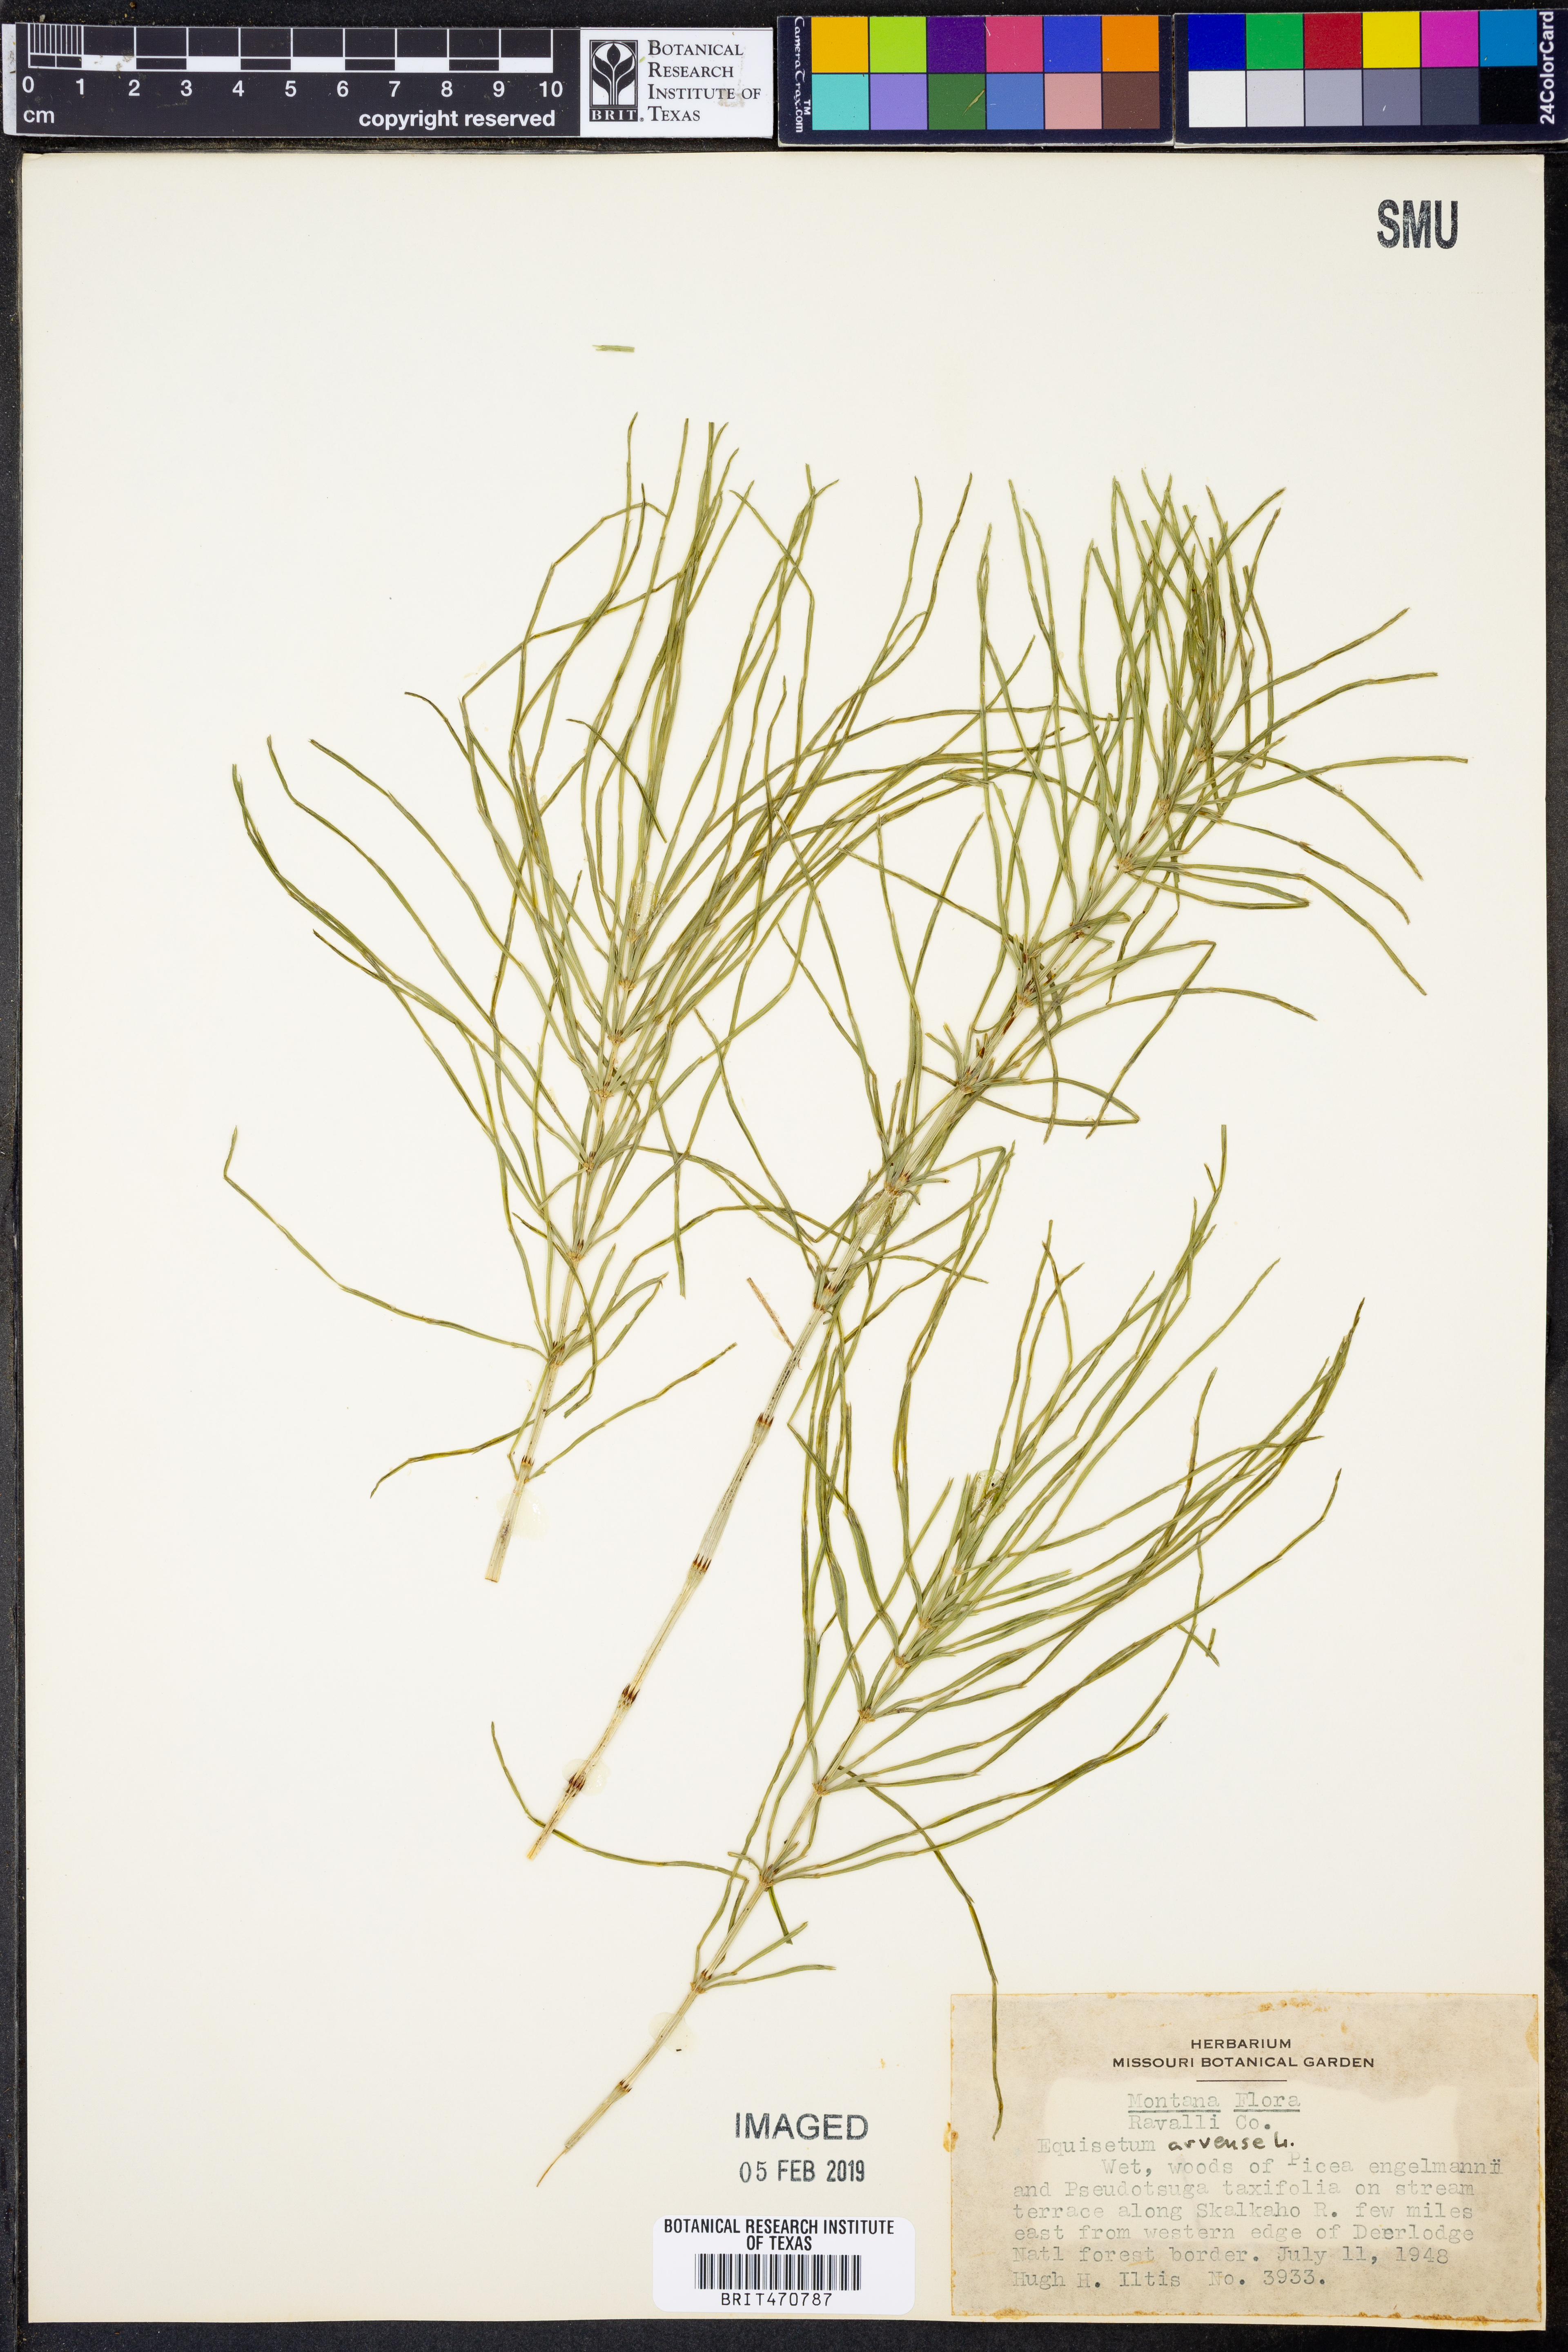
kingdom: Plantae
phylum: Tracheophyta
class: Polypodiopsida
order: Equisetales
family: Equisetaceae
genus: Equisetum
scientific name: Equisetum arvense
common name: Field horsetail
